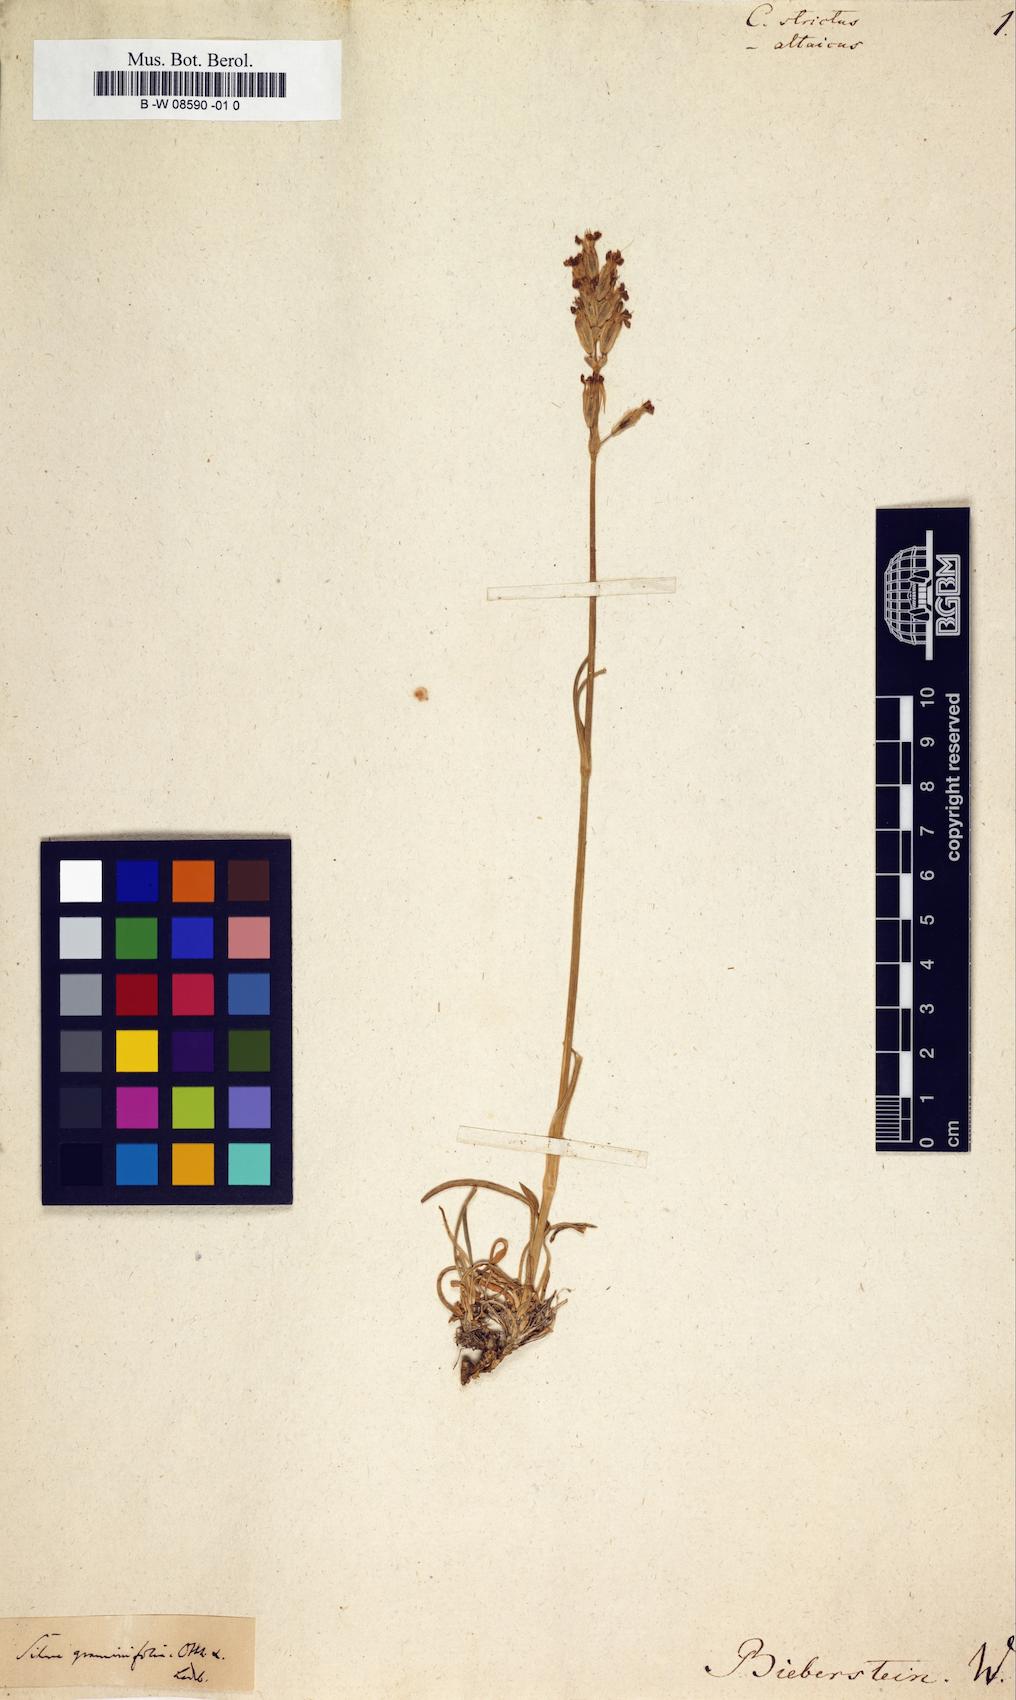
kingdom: Plantae
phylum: Tracheophyta
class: Magnoliopsida
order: Caryophyllales
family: Caryophyllaceae
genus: Silene
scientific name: Silene chamarensis
